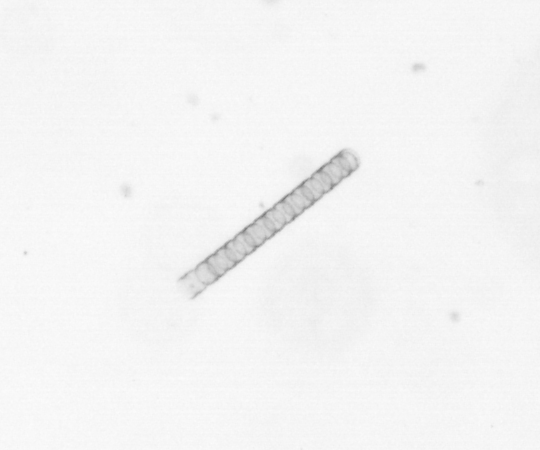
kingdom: Chromista
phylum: Ochrophyta
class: Bacillariophyceae
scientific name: Bacillariophyceae
